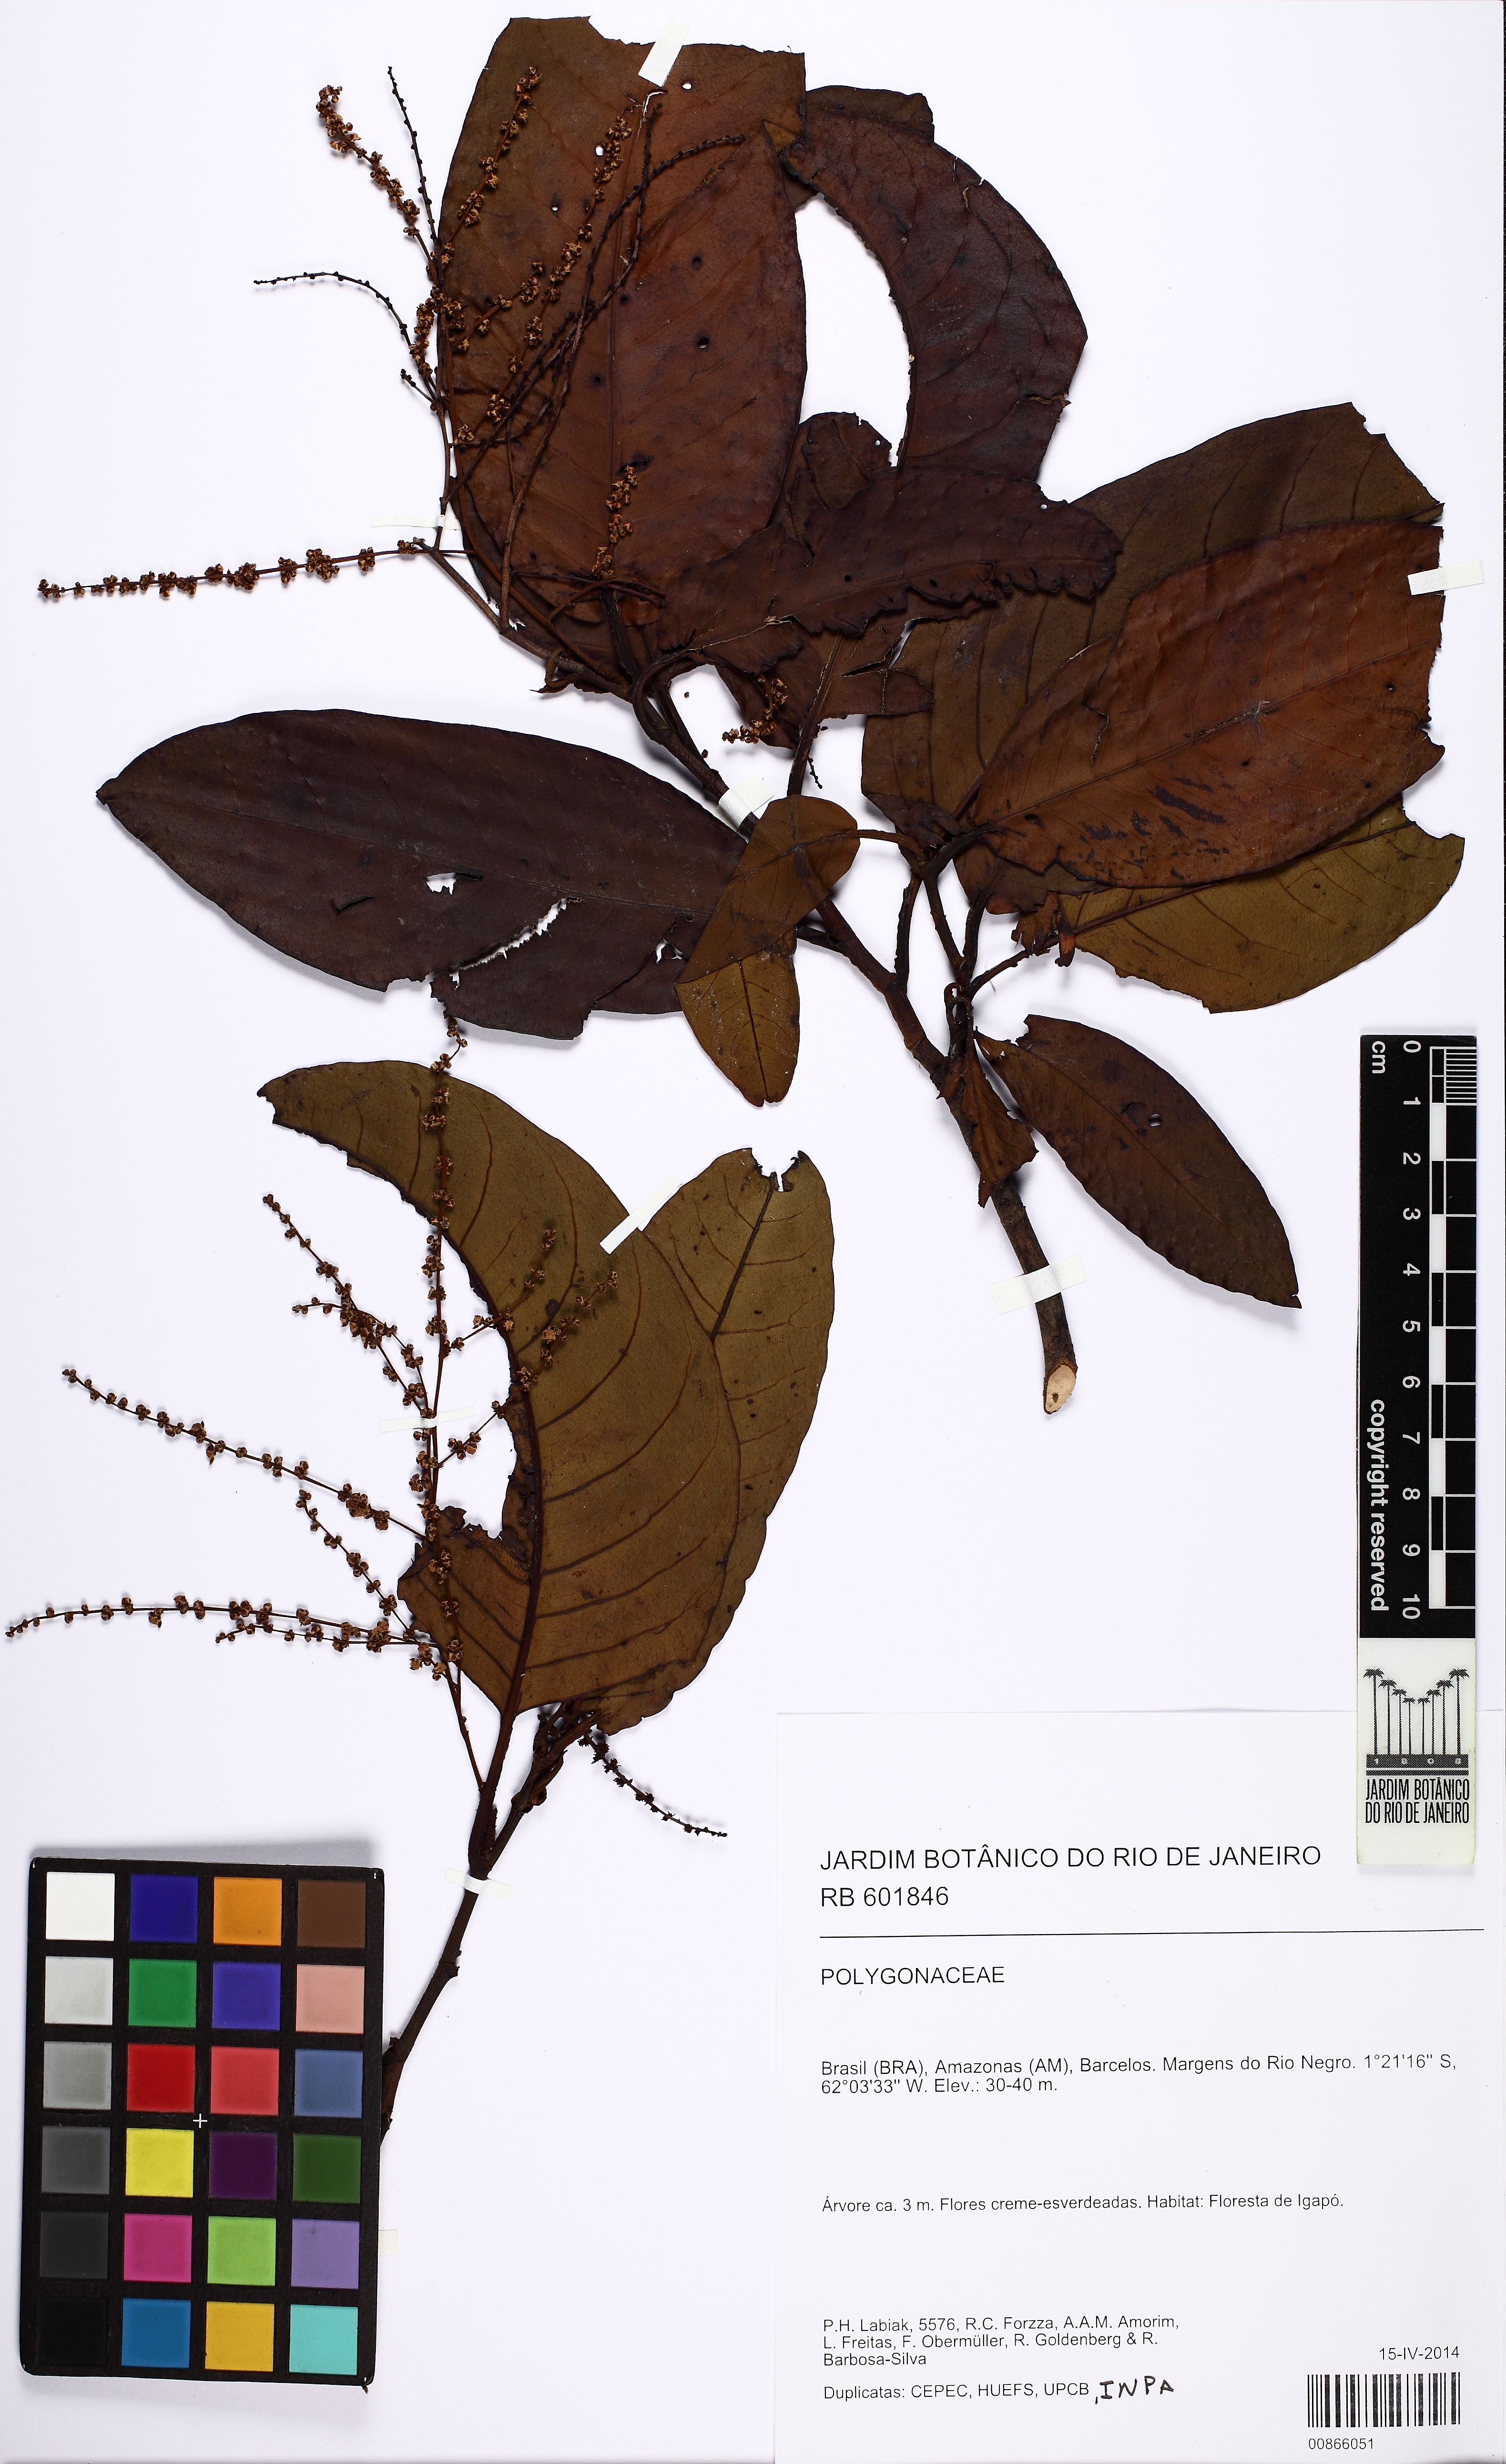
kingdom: Plantae
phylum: Tracheophyta
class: Magnoliopsida
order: Caryophyllales
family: Polygonaceae
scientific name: Polygonaceae
